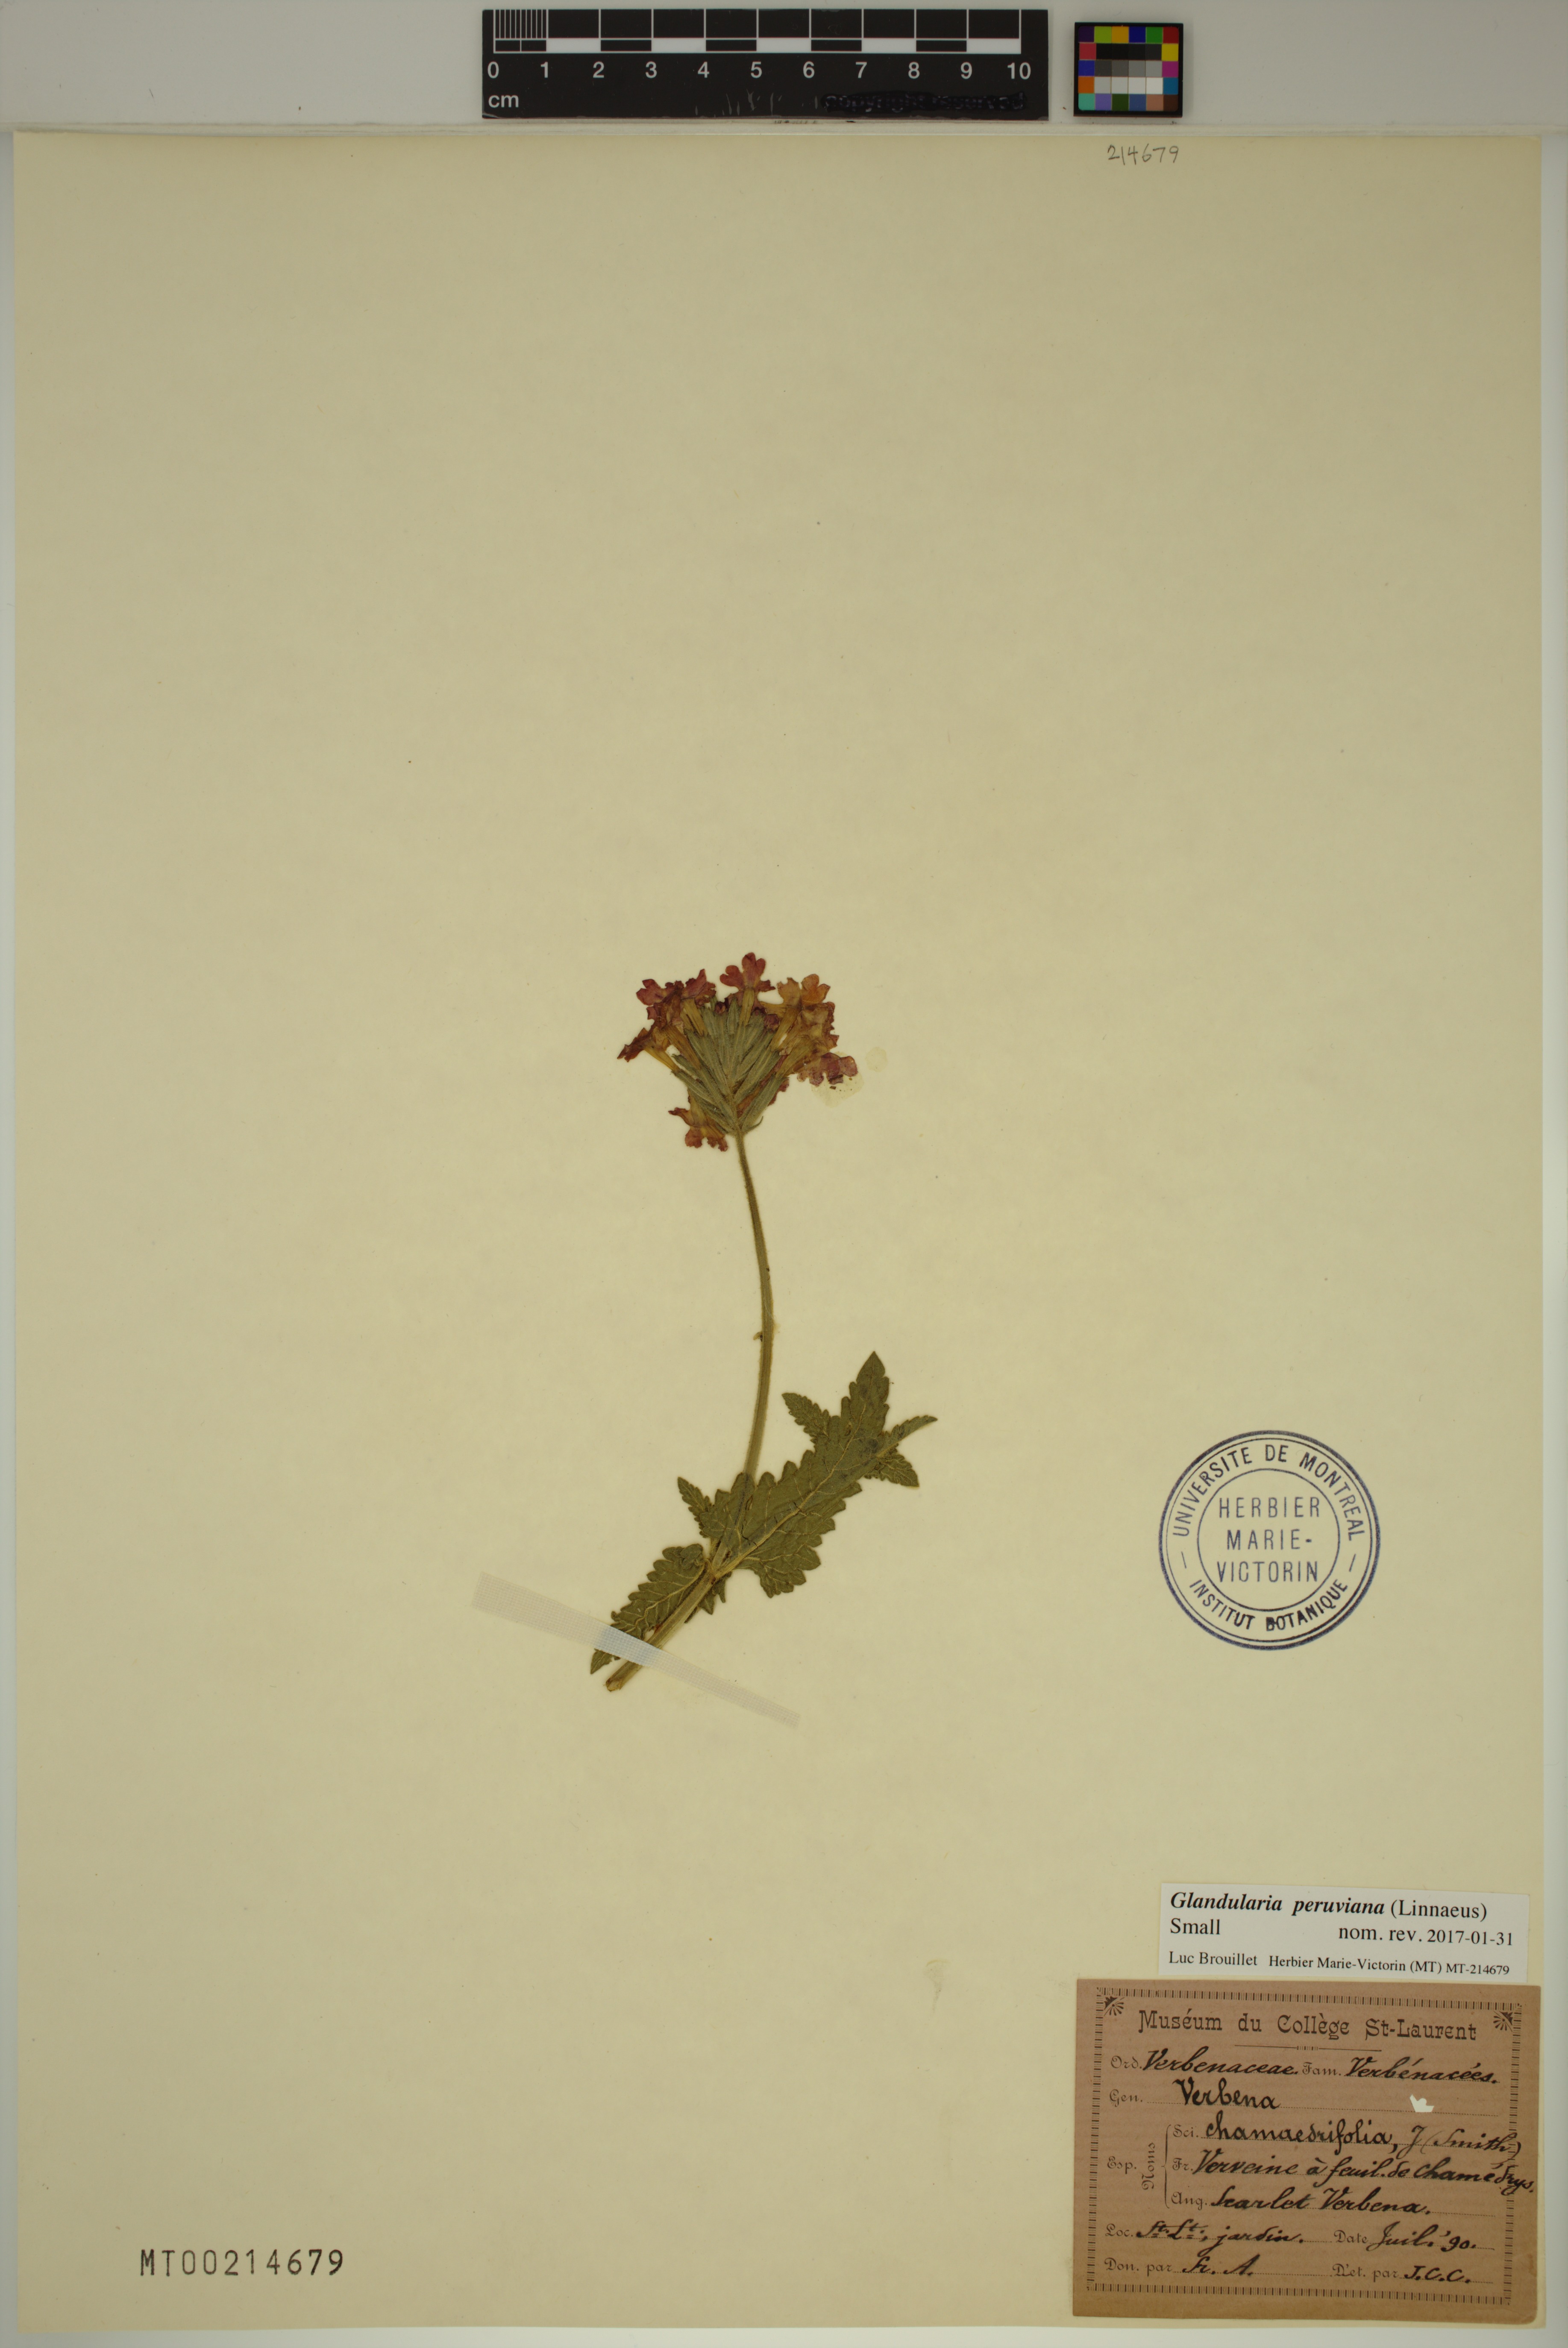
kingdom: Plantae
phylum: Tracheophyta
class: Magnoliopsida
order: Lamiales
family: Verbenaceae
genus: Verbena
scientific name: Verbena peruviana
